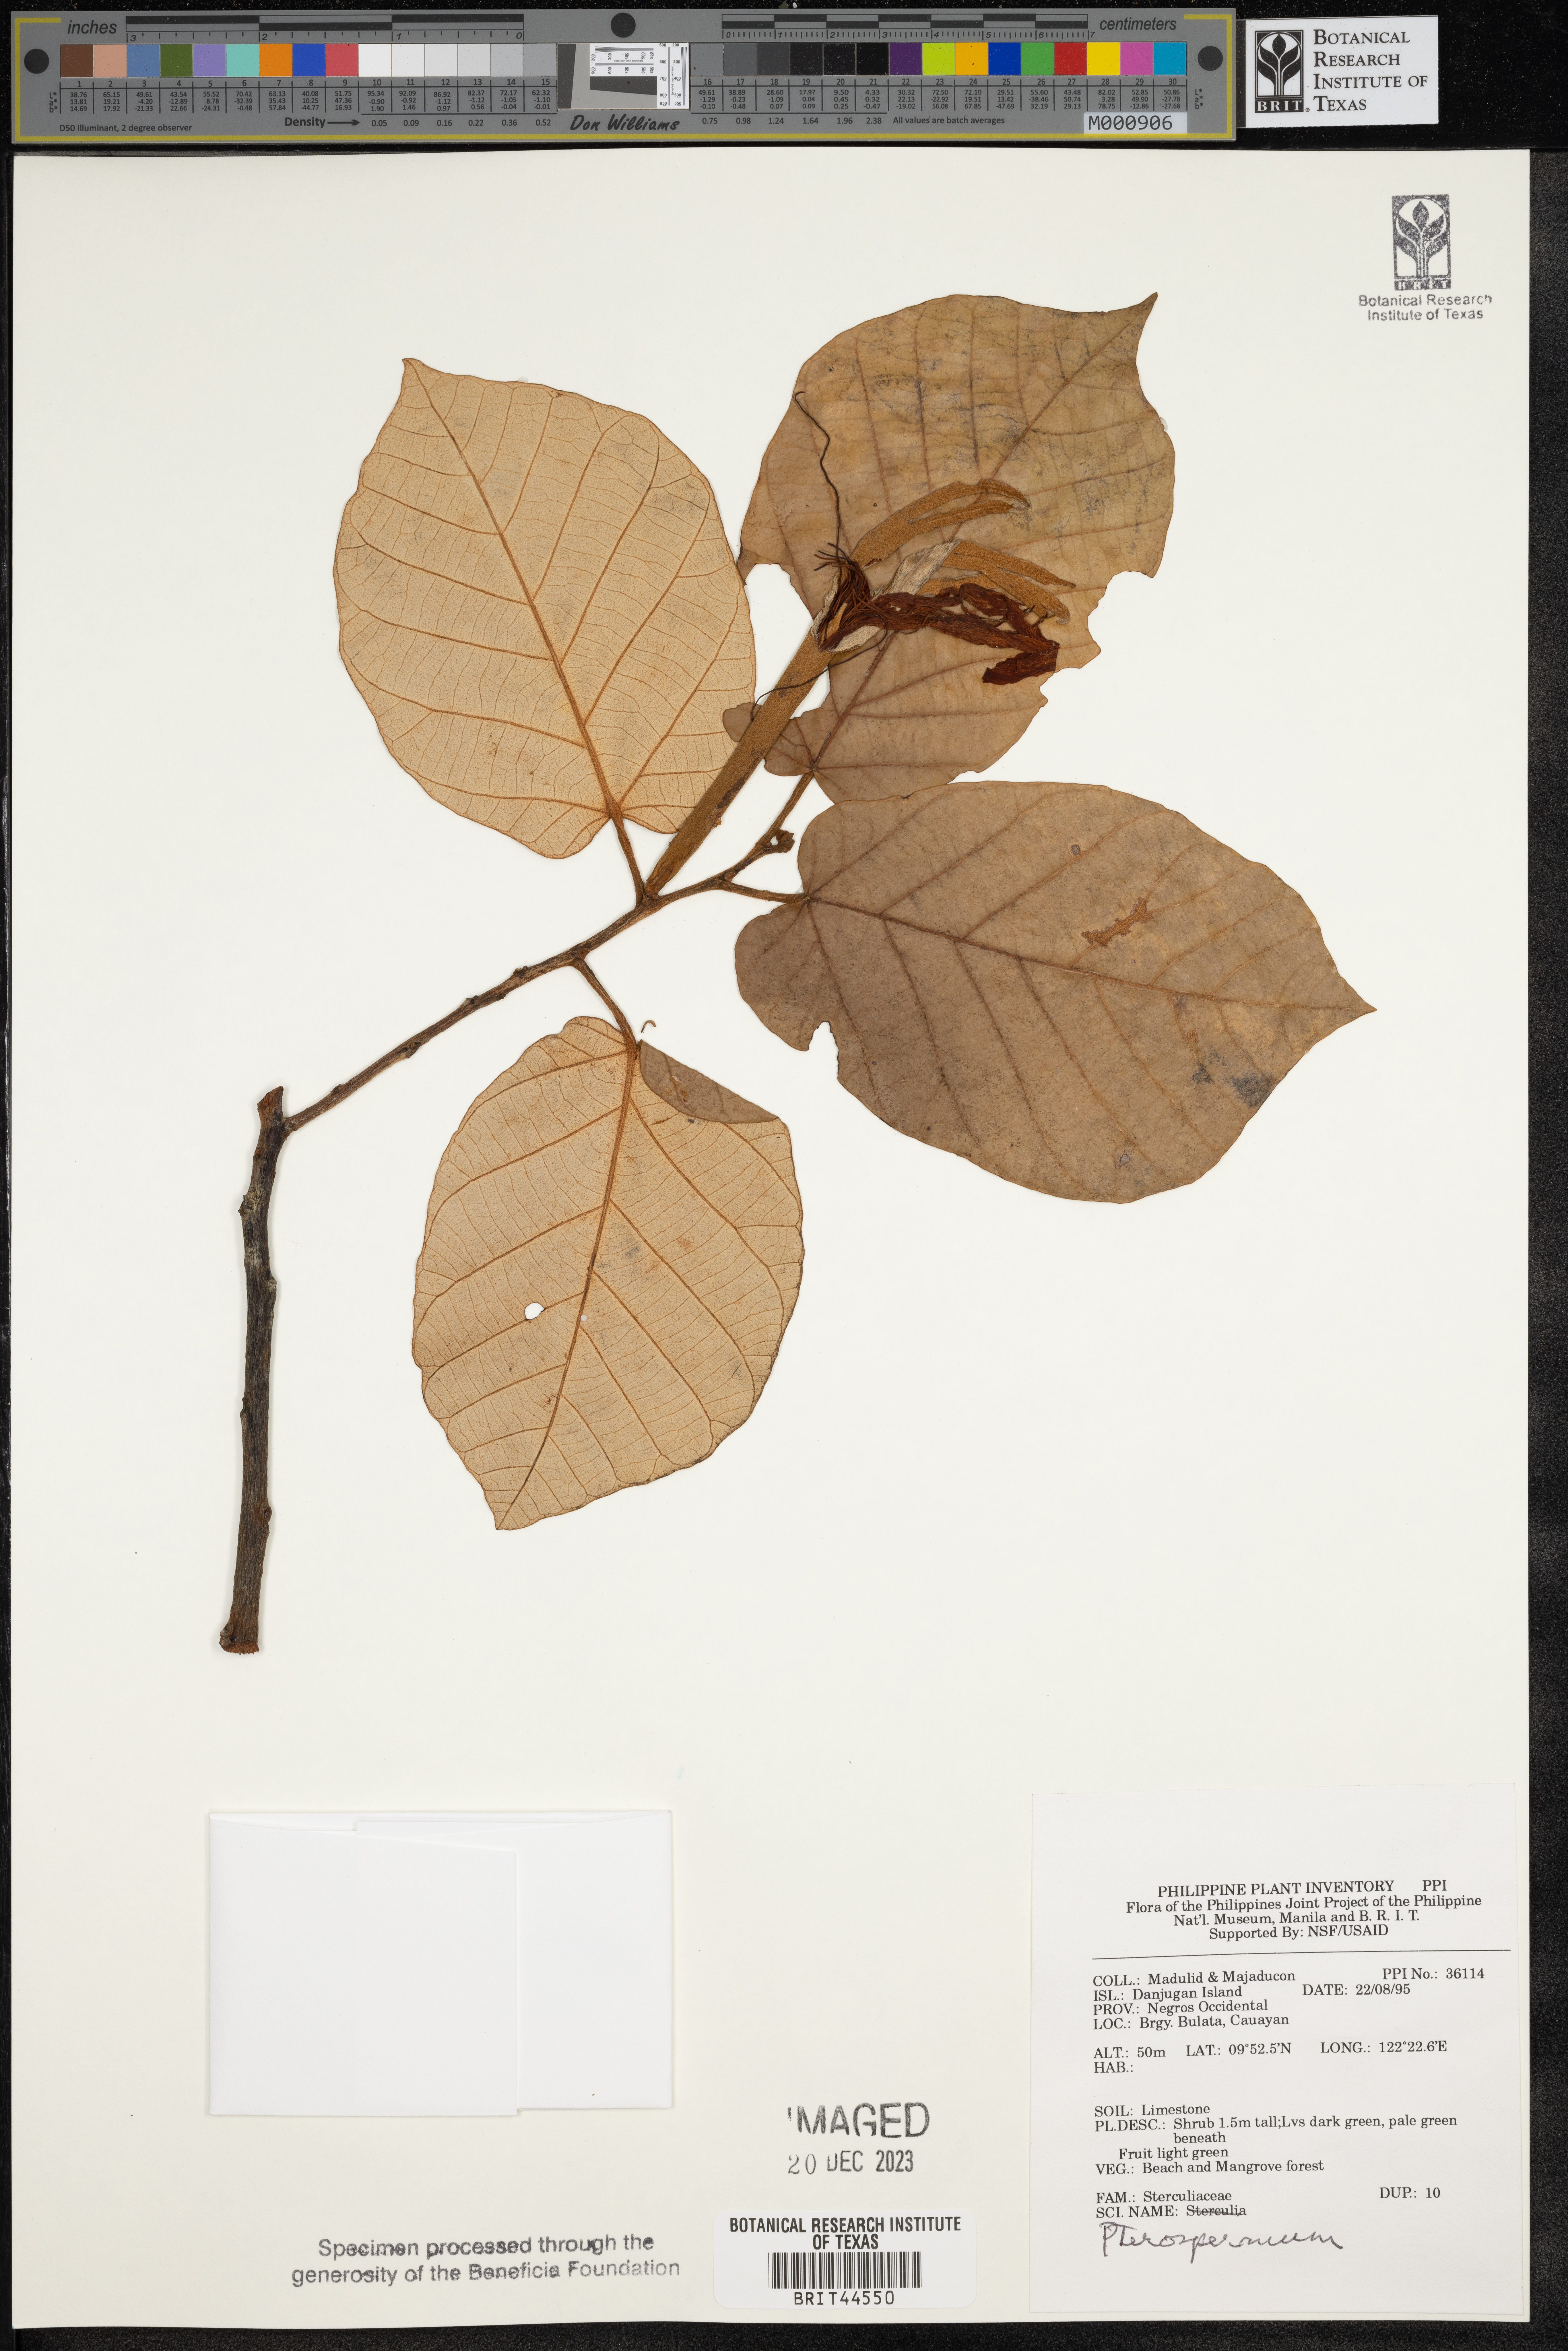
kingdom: Plantae
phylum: Tracheophyta
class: Magnoliopsida
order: Malvales
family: Malvaceae
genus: Pterospermum
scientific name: Pterospermum
